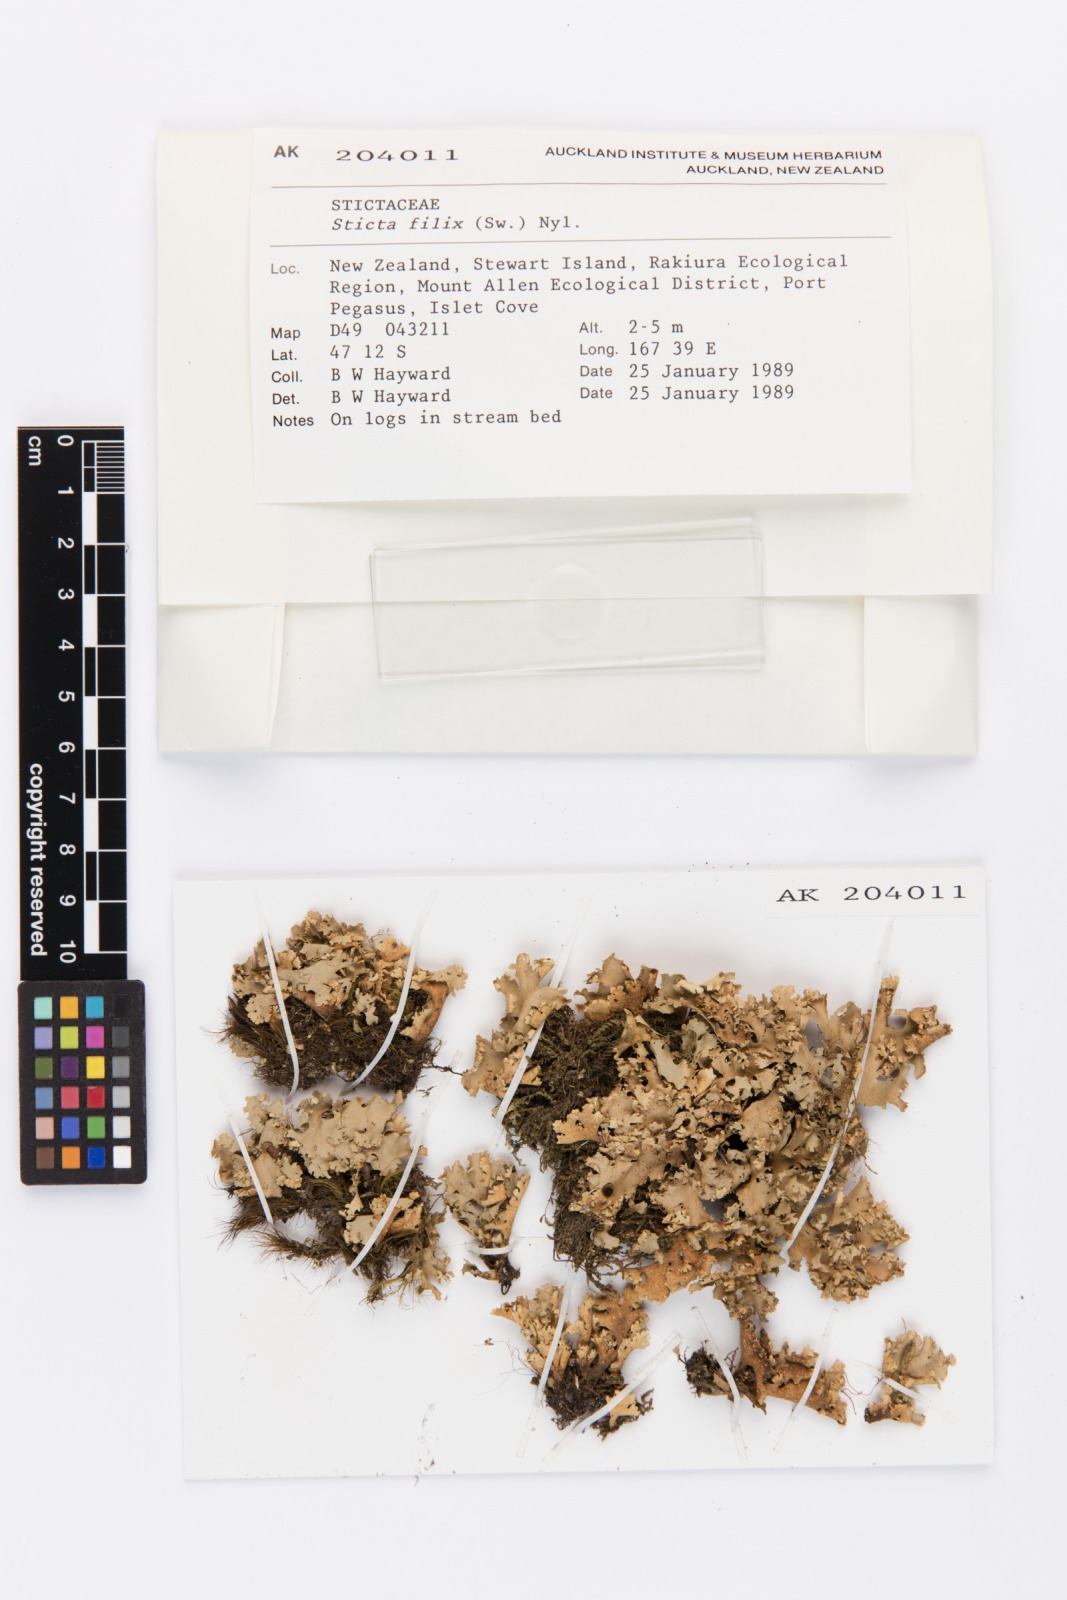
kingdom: Fungi
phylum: Ascomycota
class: Lecanoromycetes
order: Peltigerales
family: Lobariaceae
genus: Sticta
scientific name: Sticta filix
